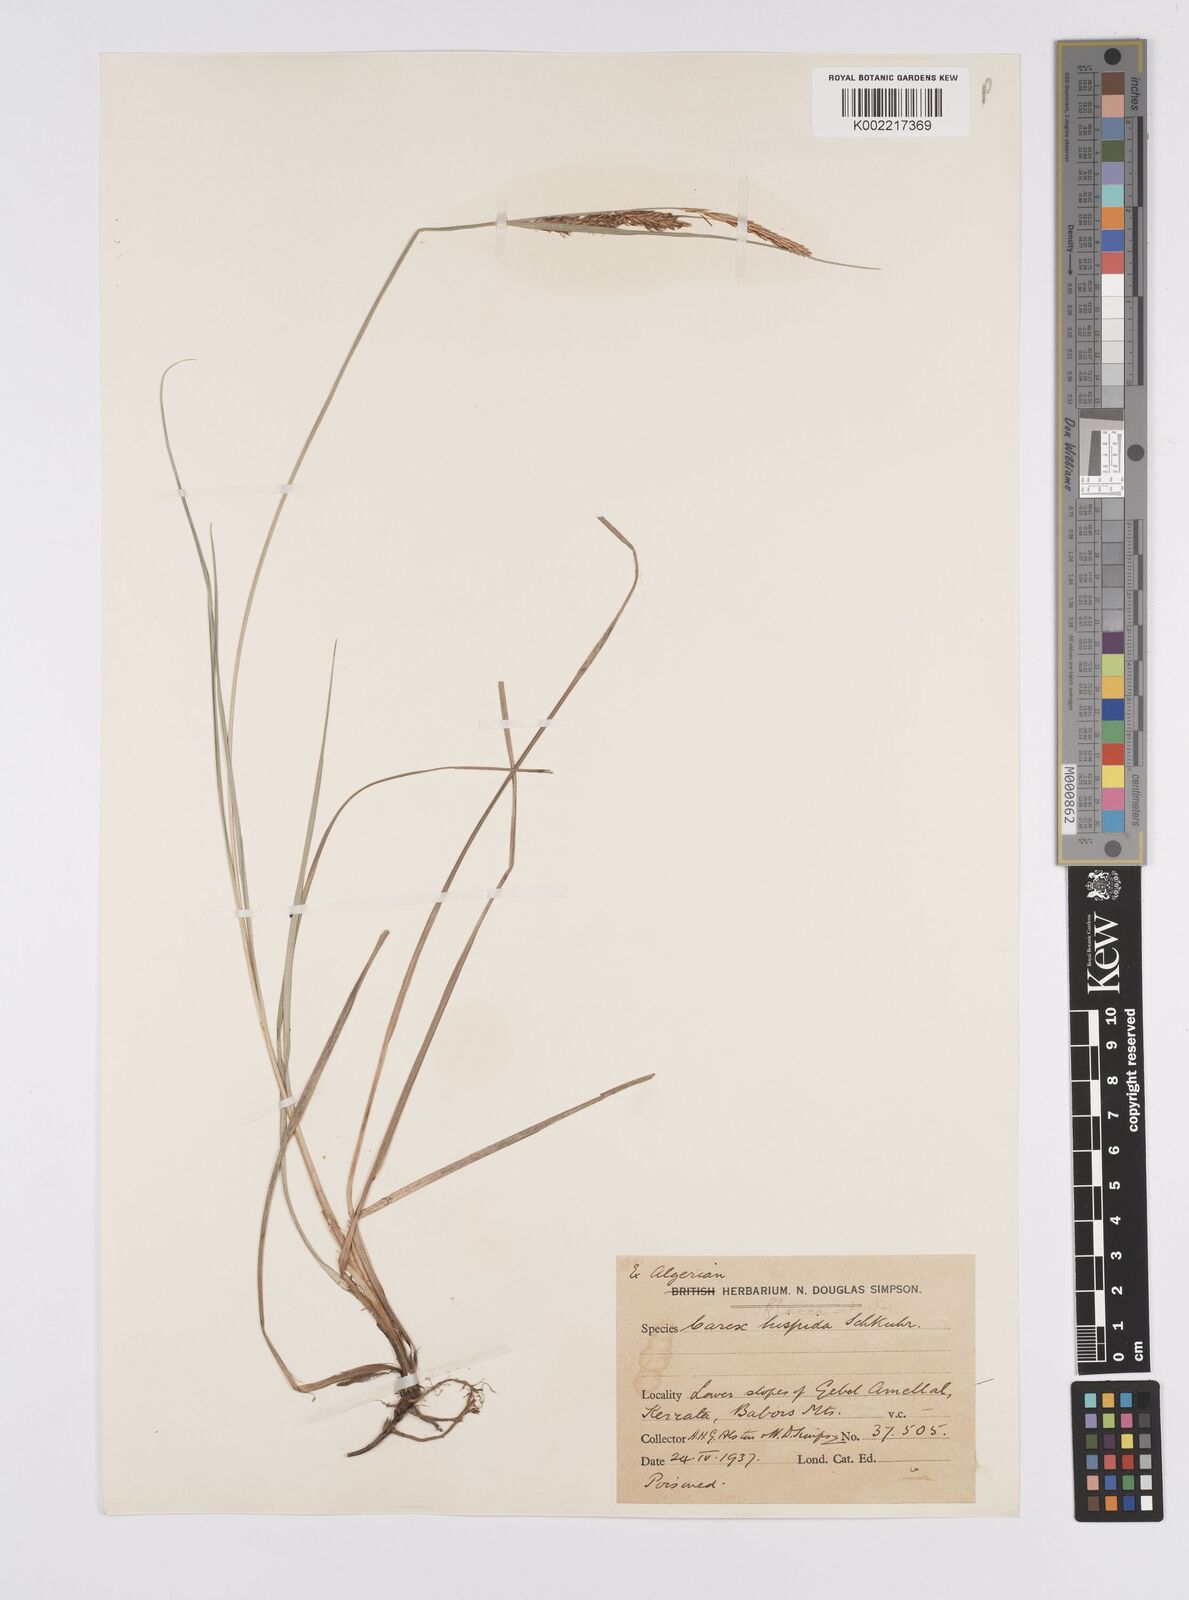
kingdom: Plantae
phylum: Tracheophyta
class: Liliopsida
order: Poales
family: Cyperaceae
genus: Carex
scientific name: Carex flacca
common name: Glaucous sedge
